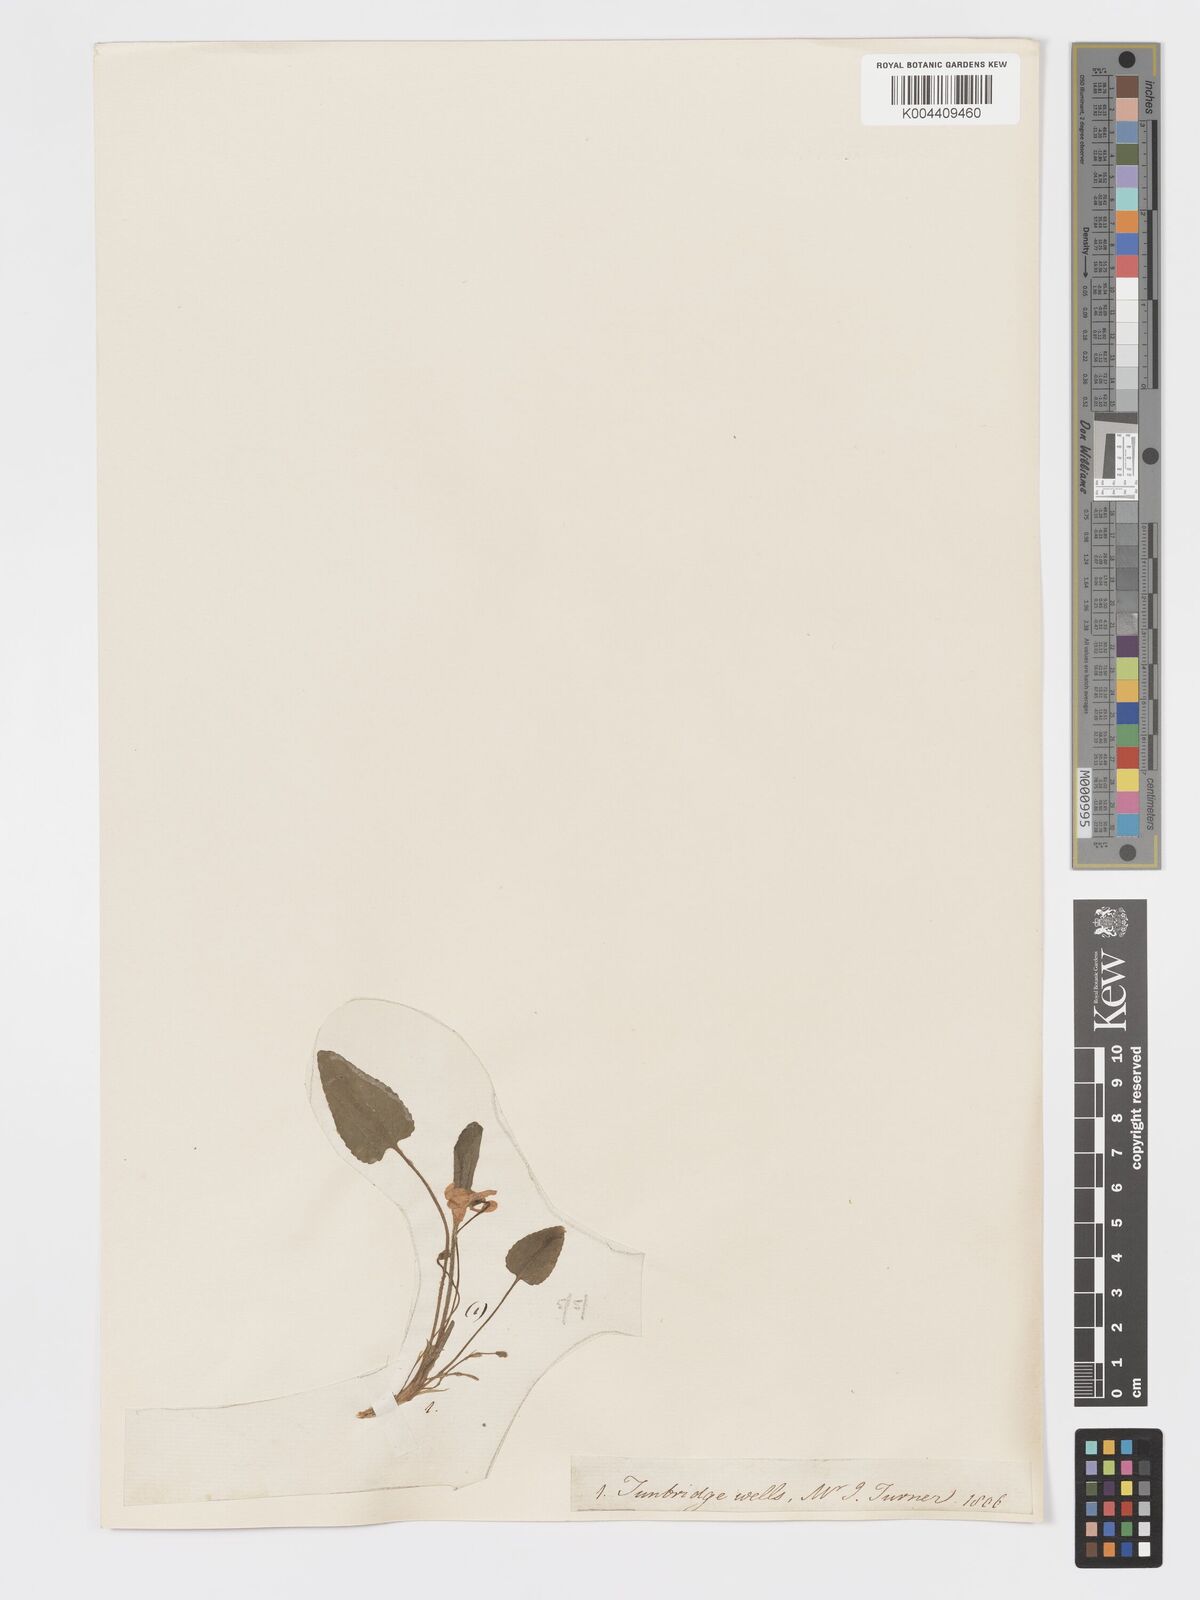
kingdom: Plantae
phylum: Tracheophyta
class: Magnoliopsida
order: Malpighiales
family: Violaceae
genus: Viola
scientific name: Viola
